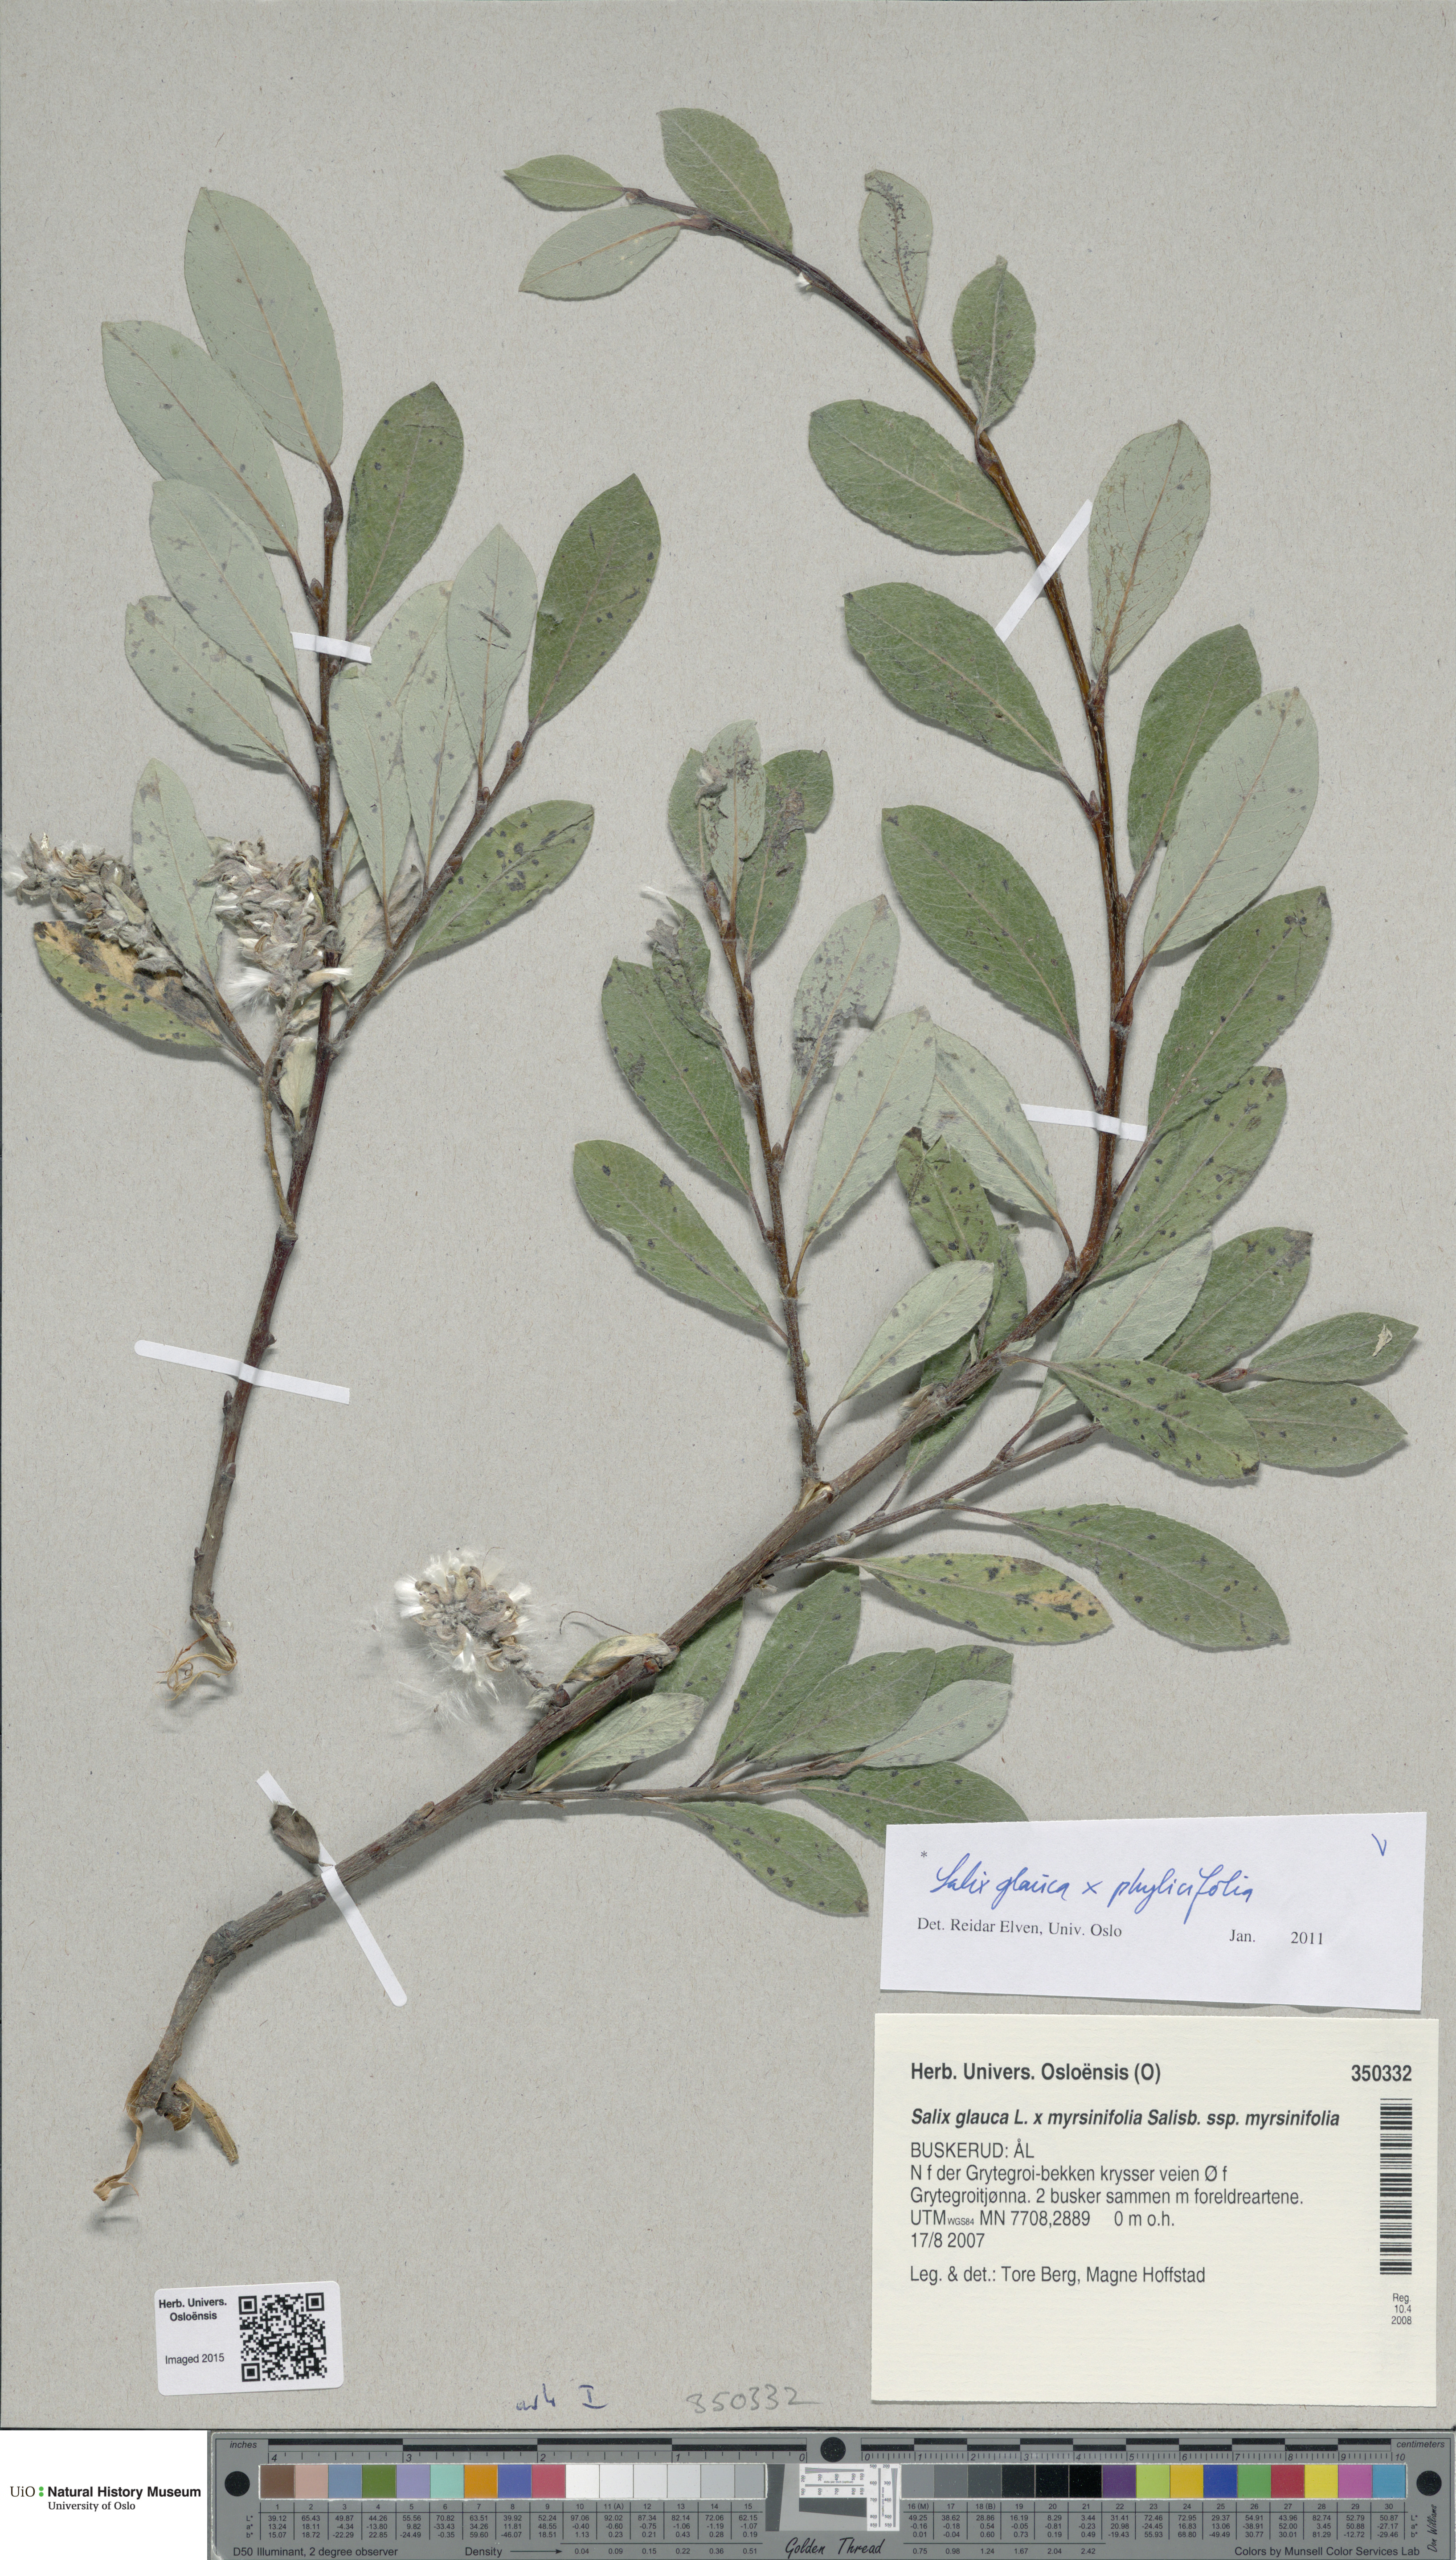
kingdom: Plantae
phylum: Tracheophyta
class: Magnoliopsida
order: Malpighiales
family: Salicaceae
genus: Salix
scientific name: Salix
